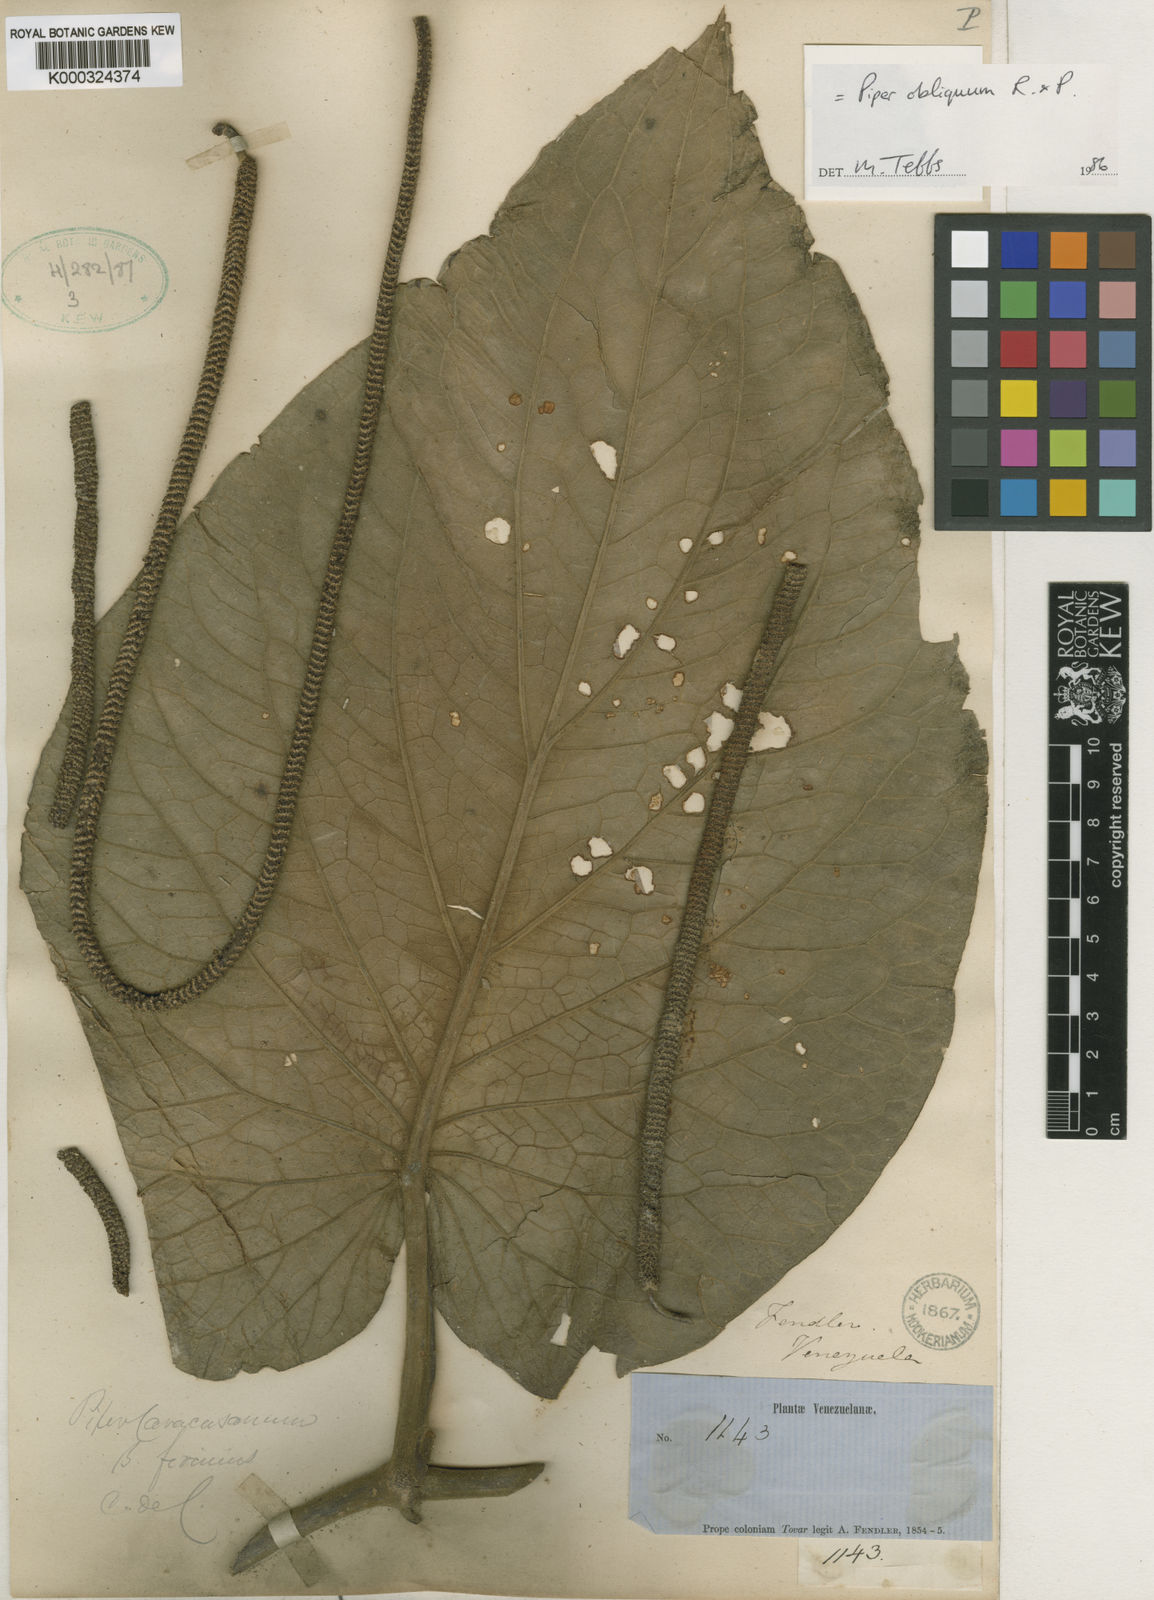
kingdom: Plantae
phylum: Tracheophyta
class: Magnoliopsida
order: Piperales
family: Piperaceae
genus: Piper
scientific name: Piper obliquum
